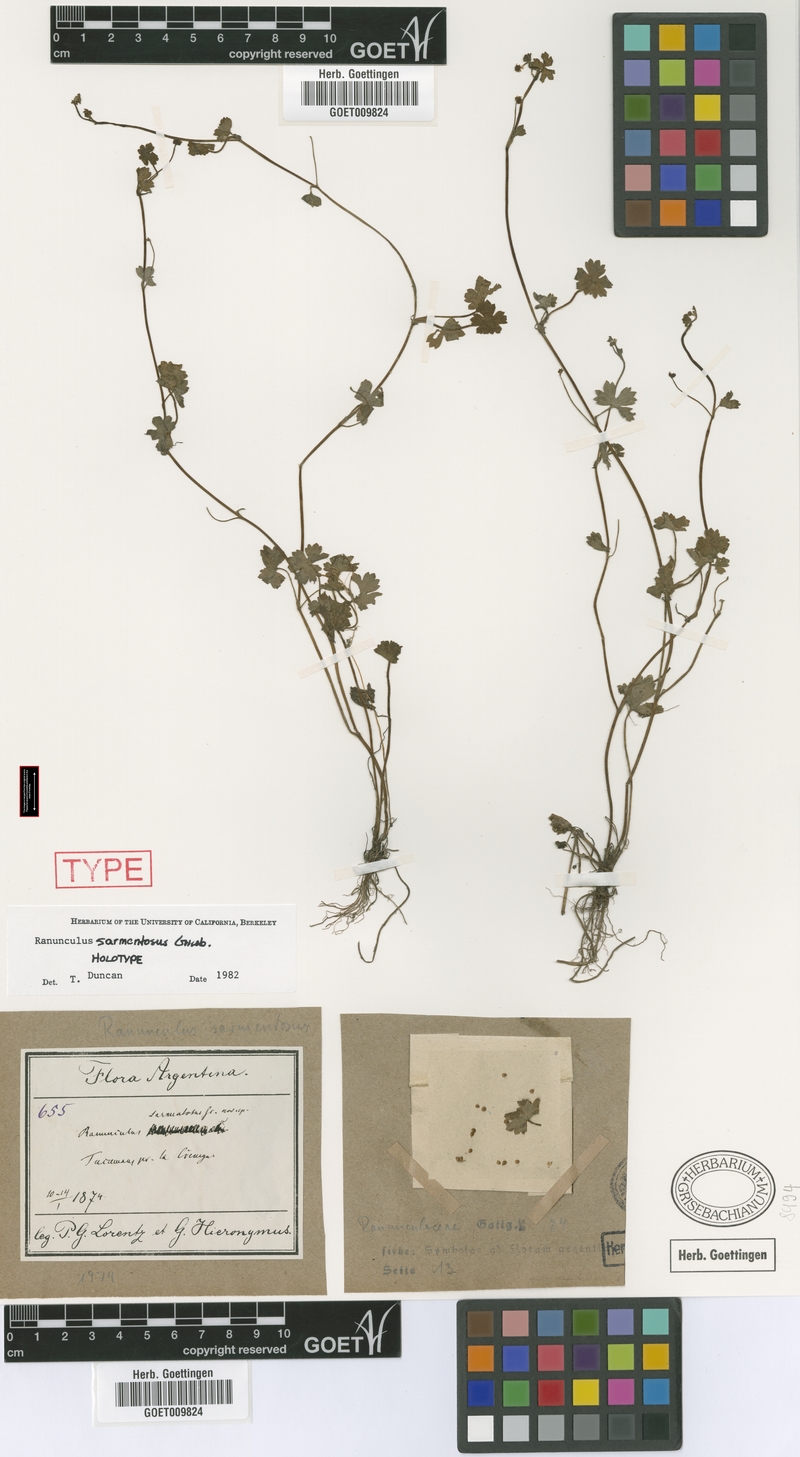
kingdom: Plantae
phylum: Tracheophyta
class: Magnoliopsida
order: Ranunculales
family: Ranunculaceae
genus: Ranunculus
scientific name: Ranunculus sarmentosus
